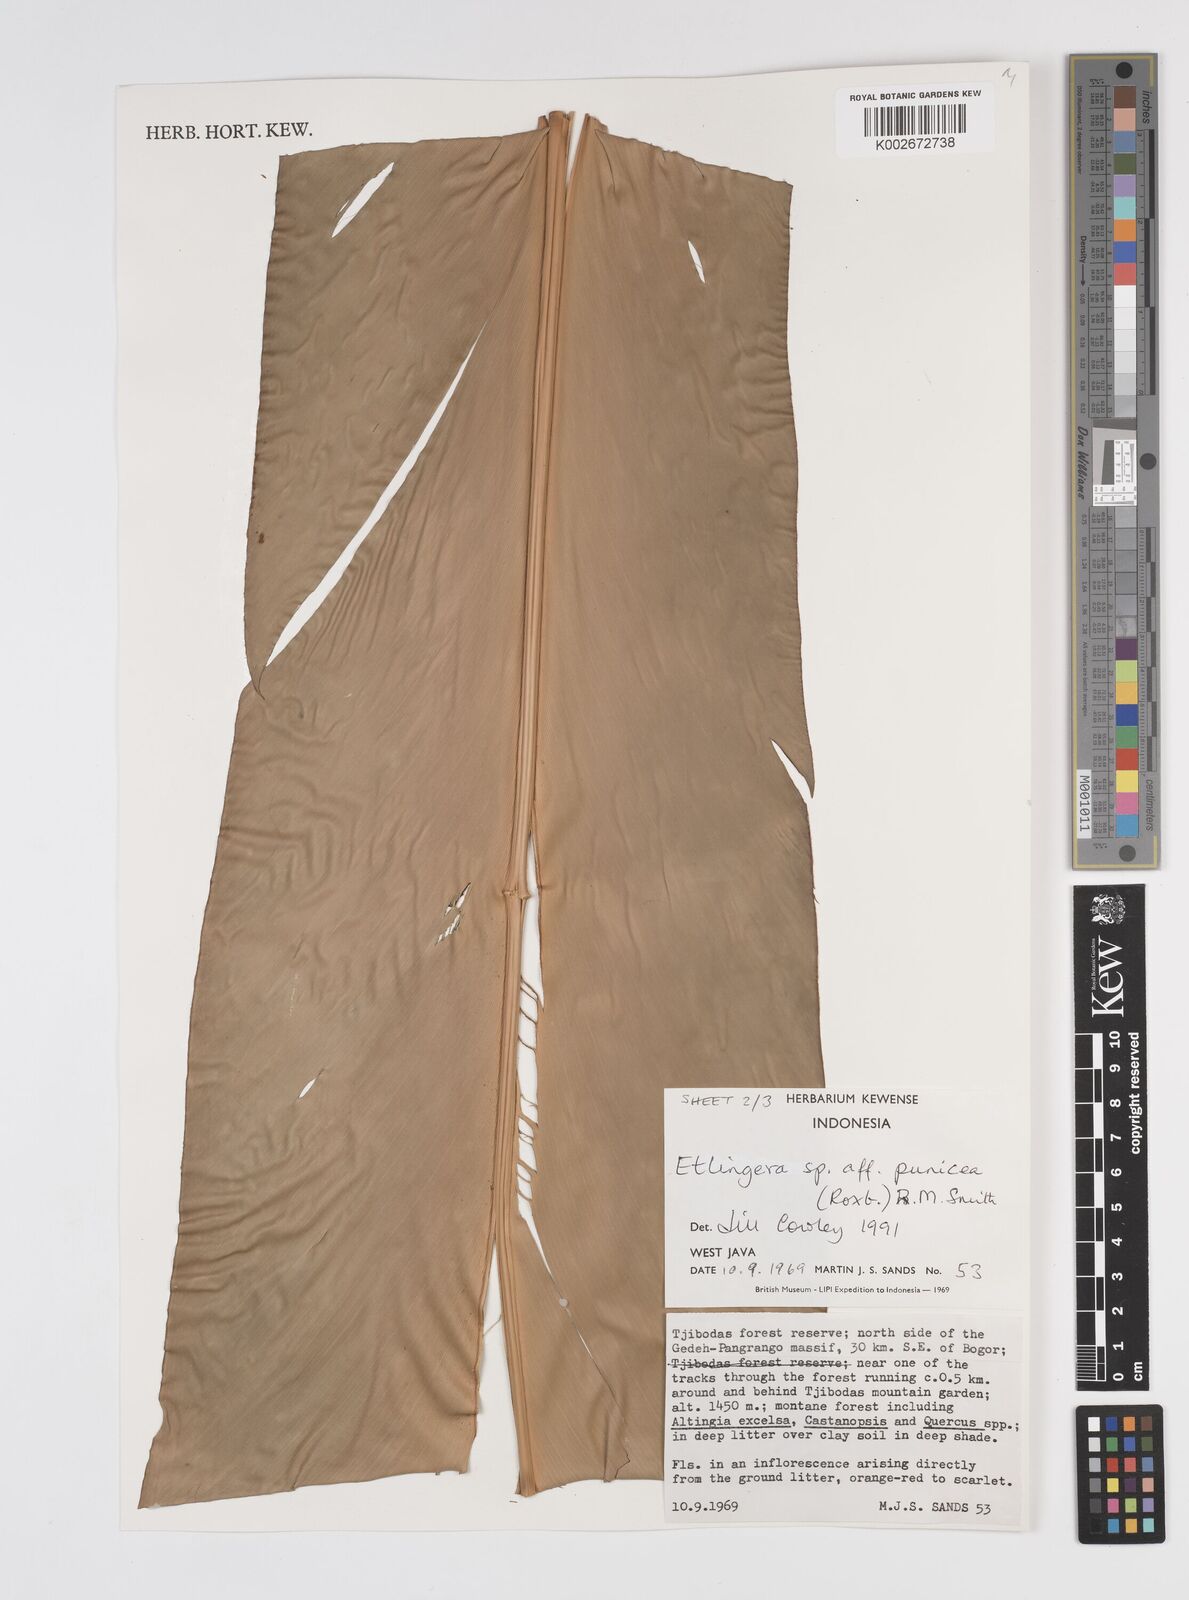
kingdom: Plantae
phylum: Tracheophyta
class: Liliopsida
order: Zingiberales
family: Zingiberaceae
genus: Etlingera
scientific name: Etlingera punicea
